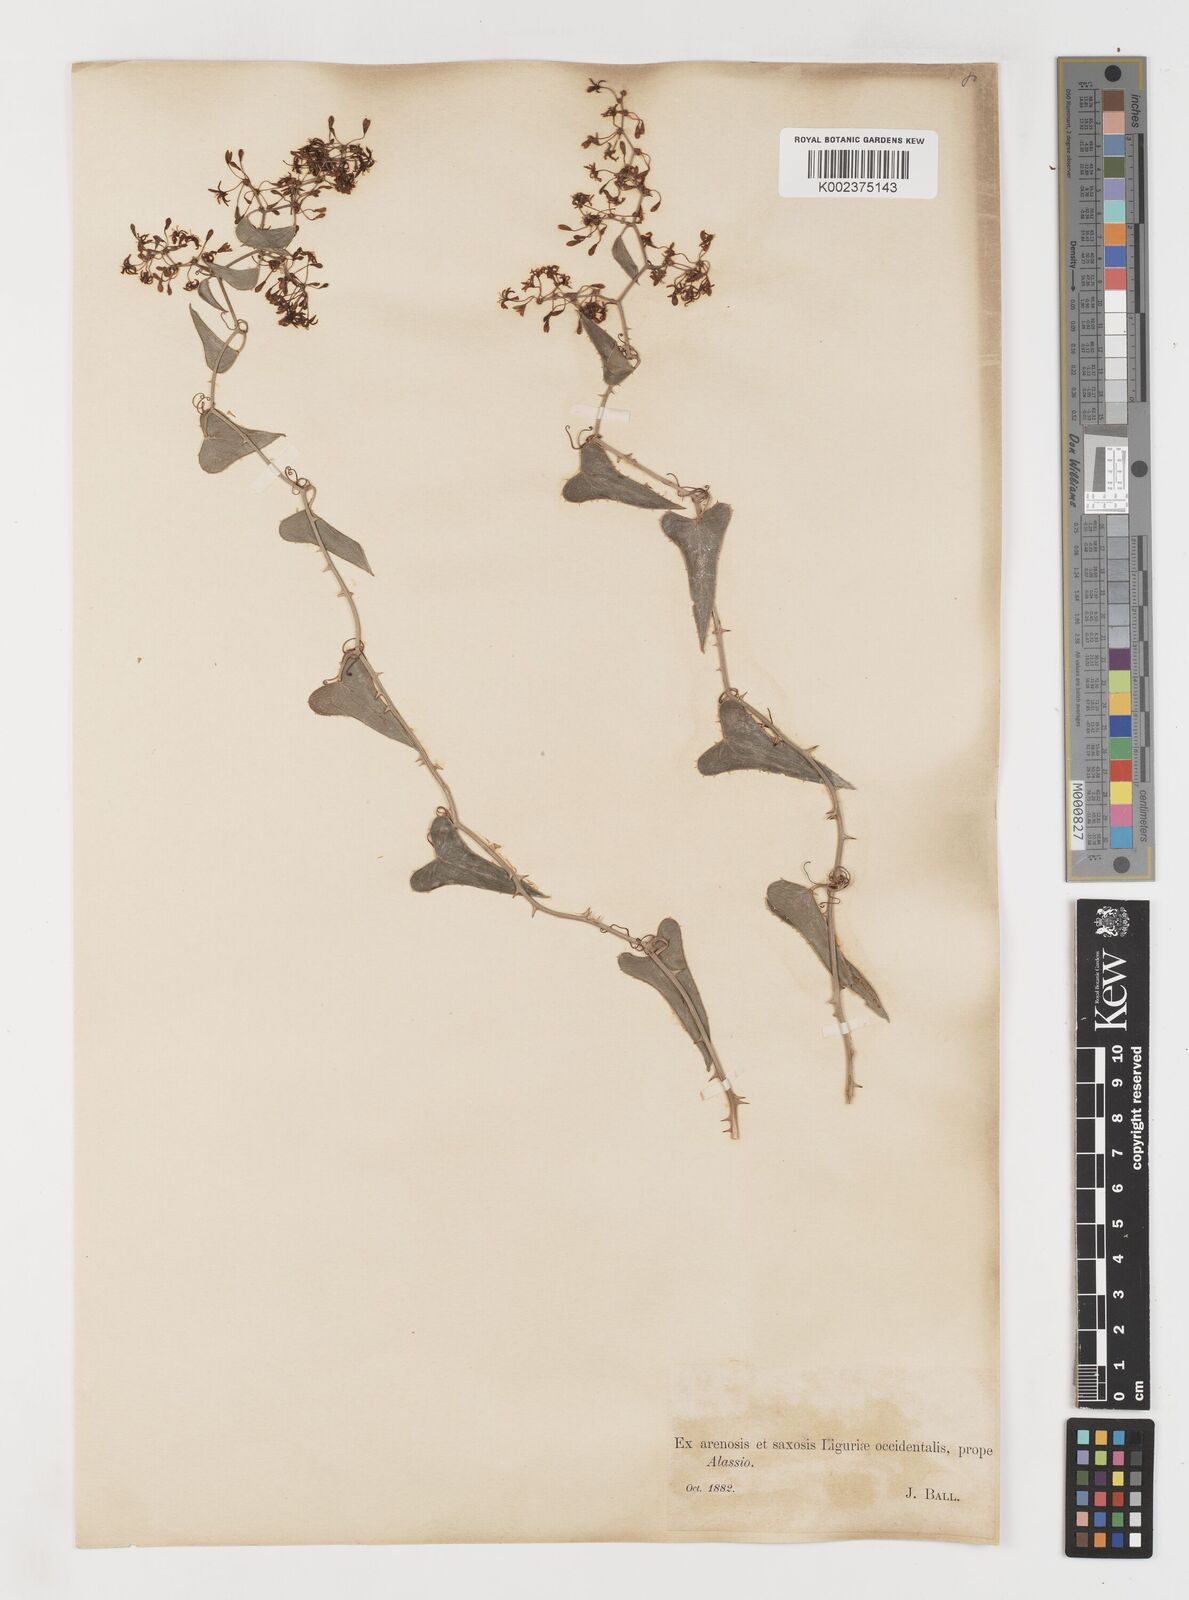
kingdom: Plantae
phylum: Tracheophyta
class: Liliopsida
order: Liliales
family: Smilacaceae
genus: Smilax
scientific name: Smilax aspera
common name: Common smilax
